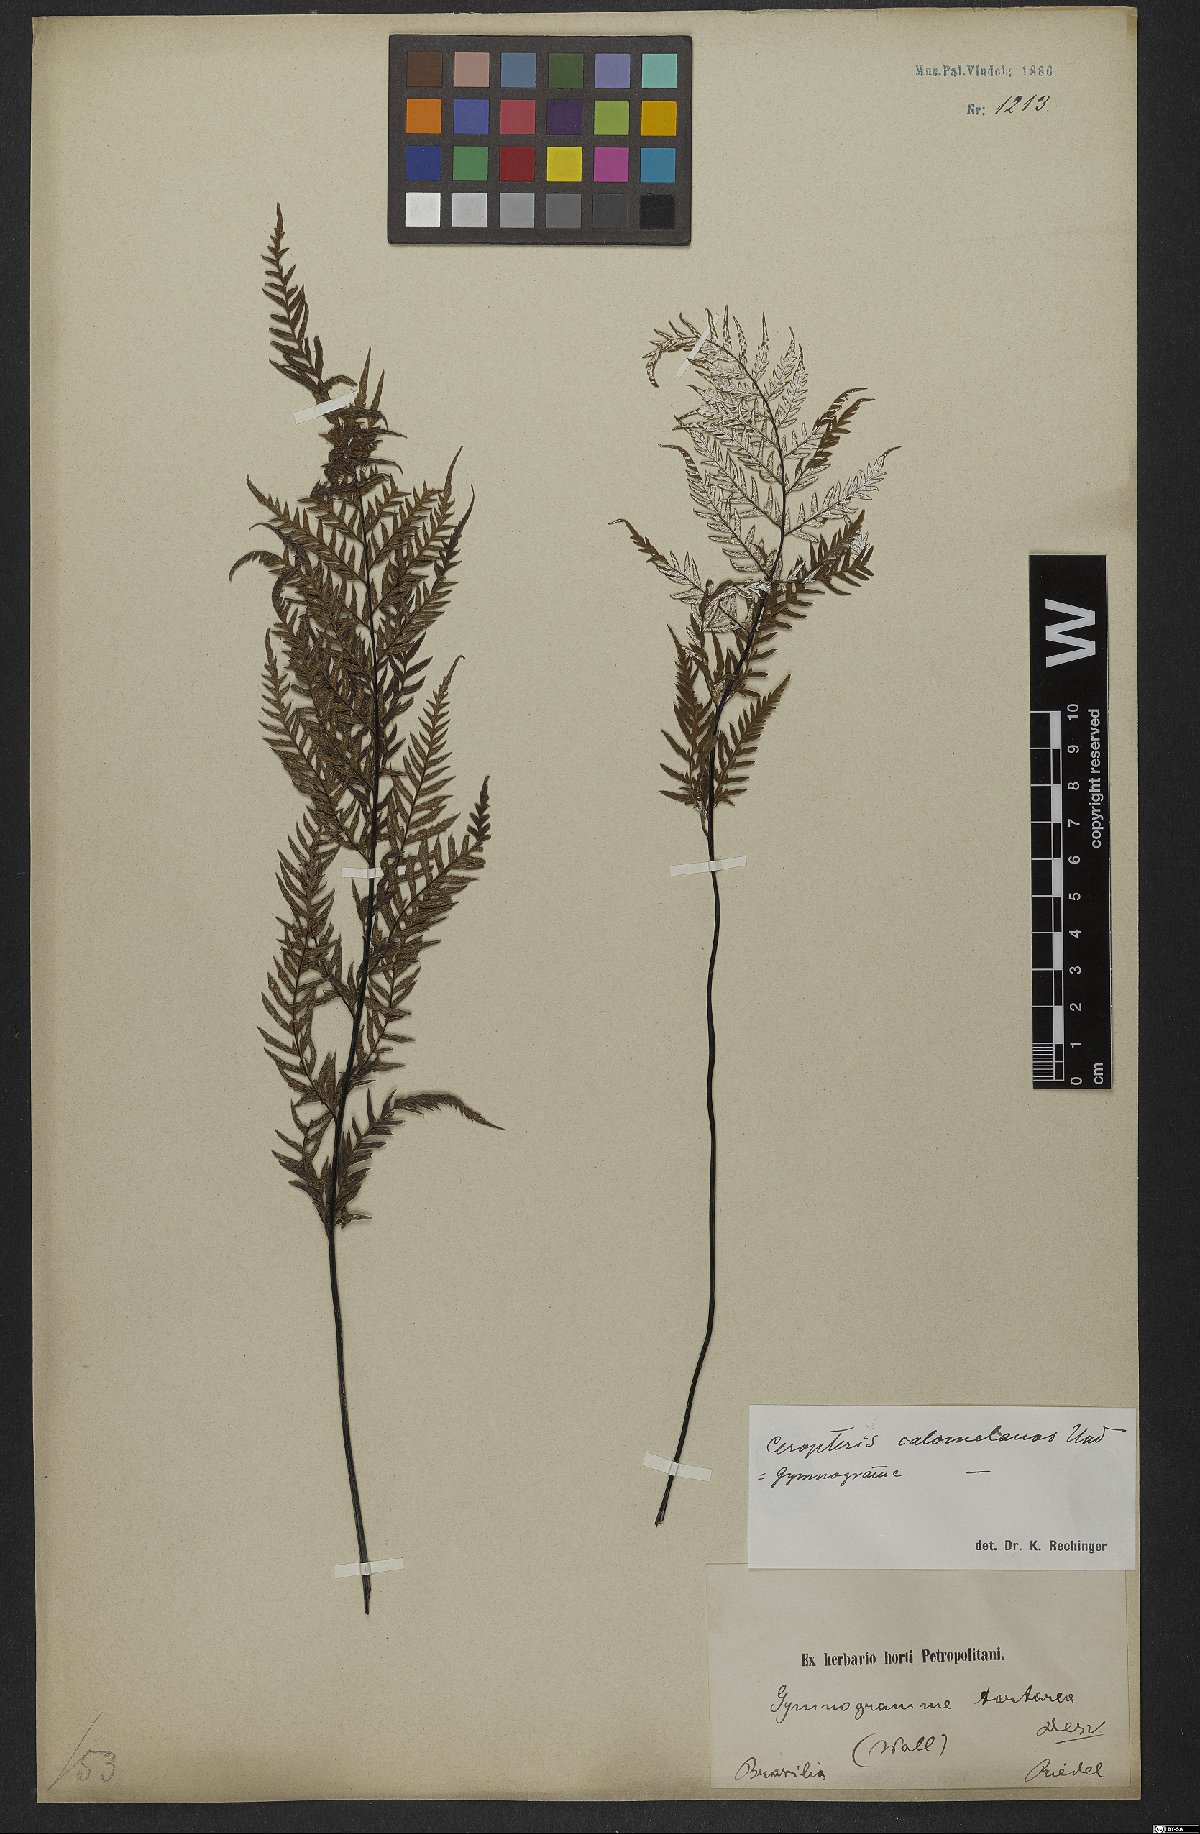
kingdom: Plantae
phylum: Tracheophyta
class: Polypodiopsida
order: Polypodiales
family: Pteridaceae
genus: Pityrogramma
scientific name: Pityrogramma calomelanos
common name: Dixie silverback fern
